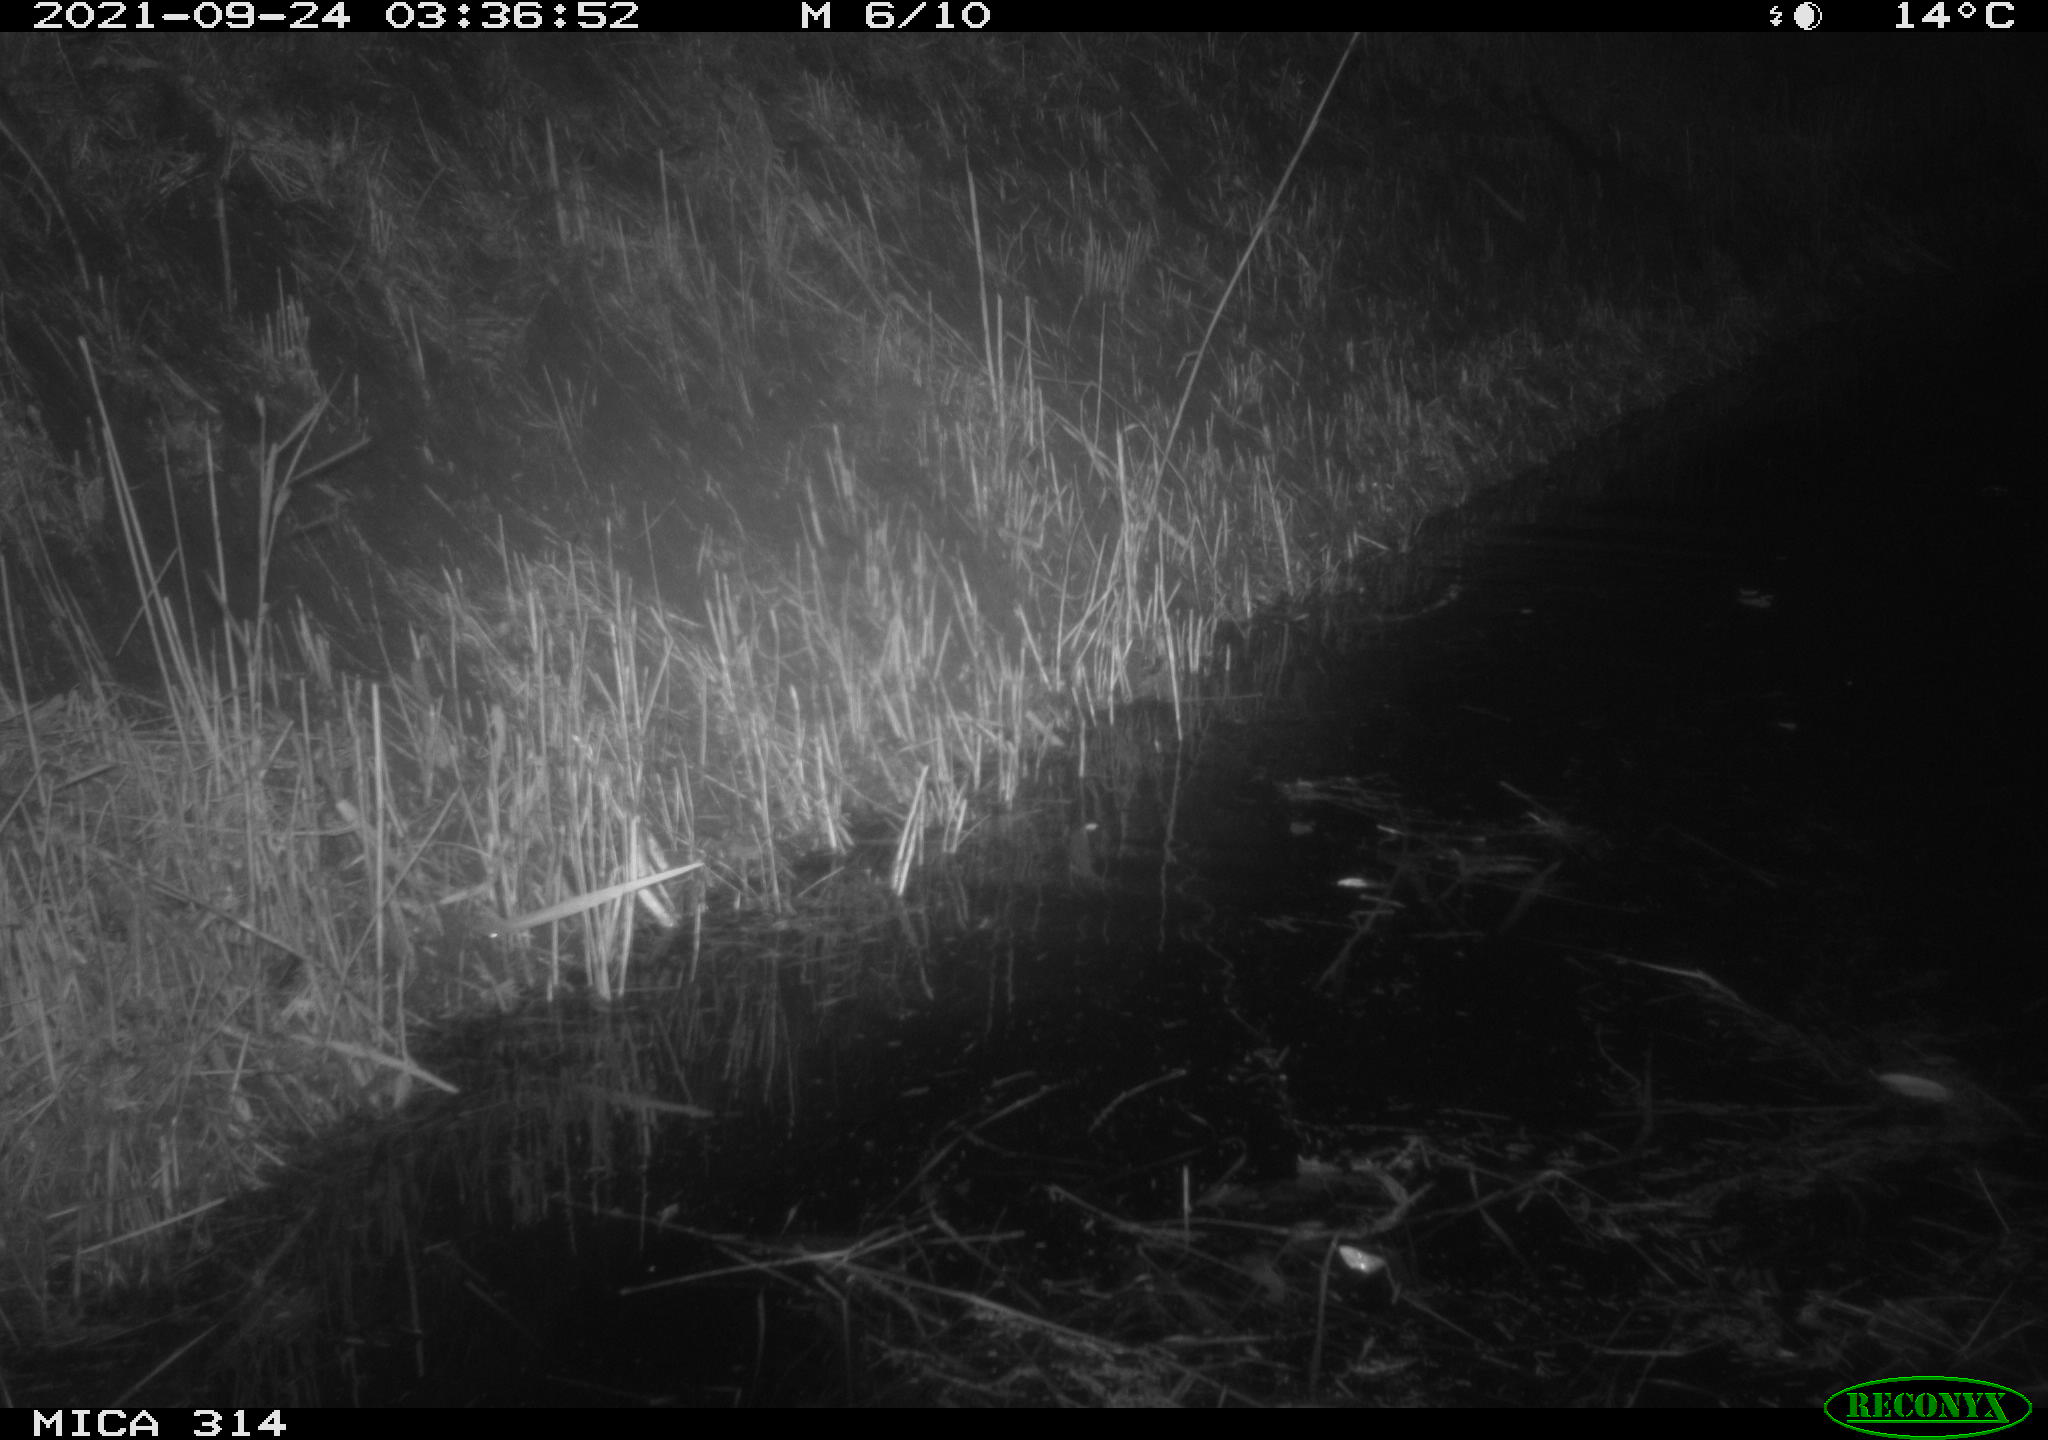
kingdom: Animalia
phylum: Chordata
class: Mammalia
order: Rodentia
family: Muridae
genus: Rattus
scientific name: Rattus norvegicus
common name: Brown rat
